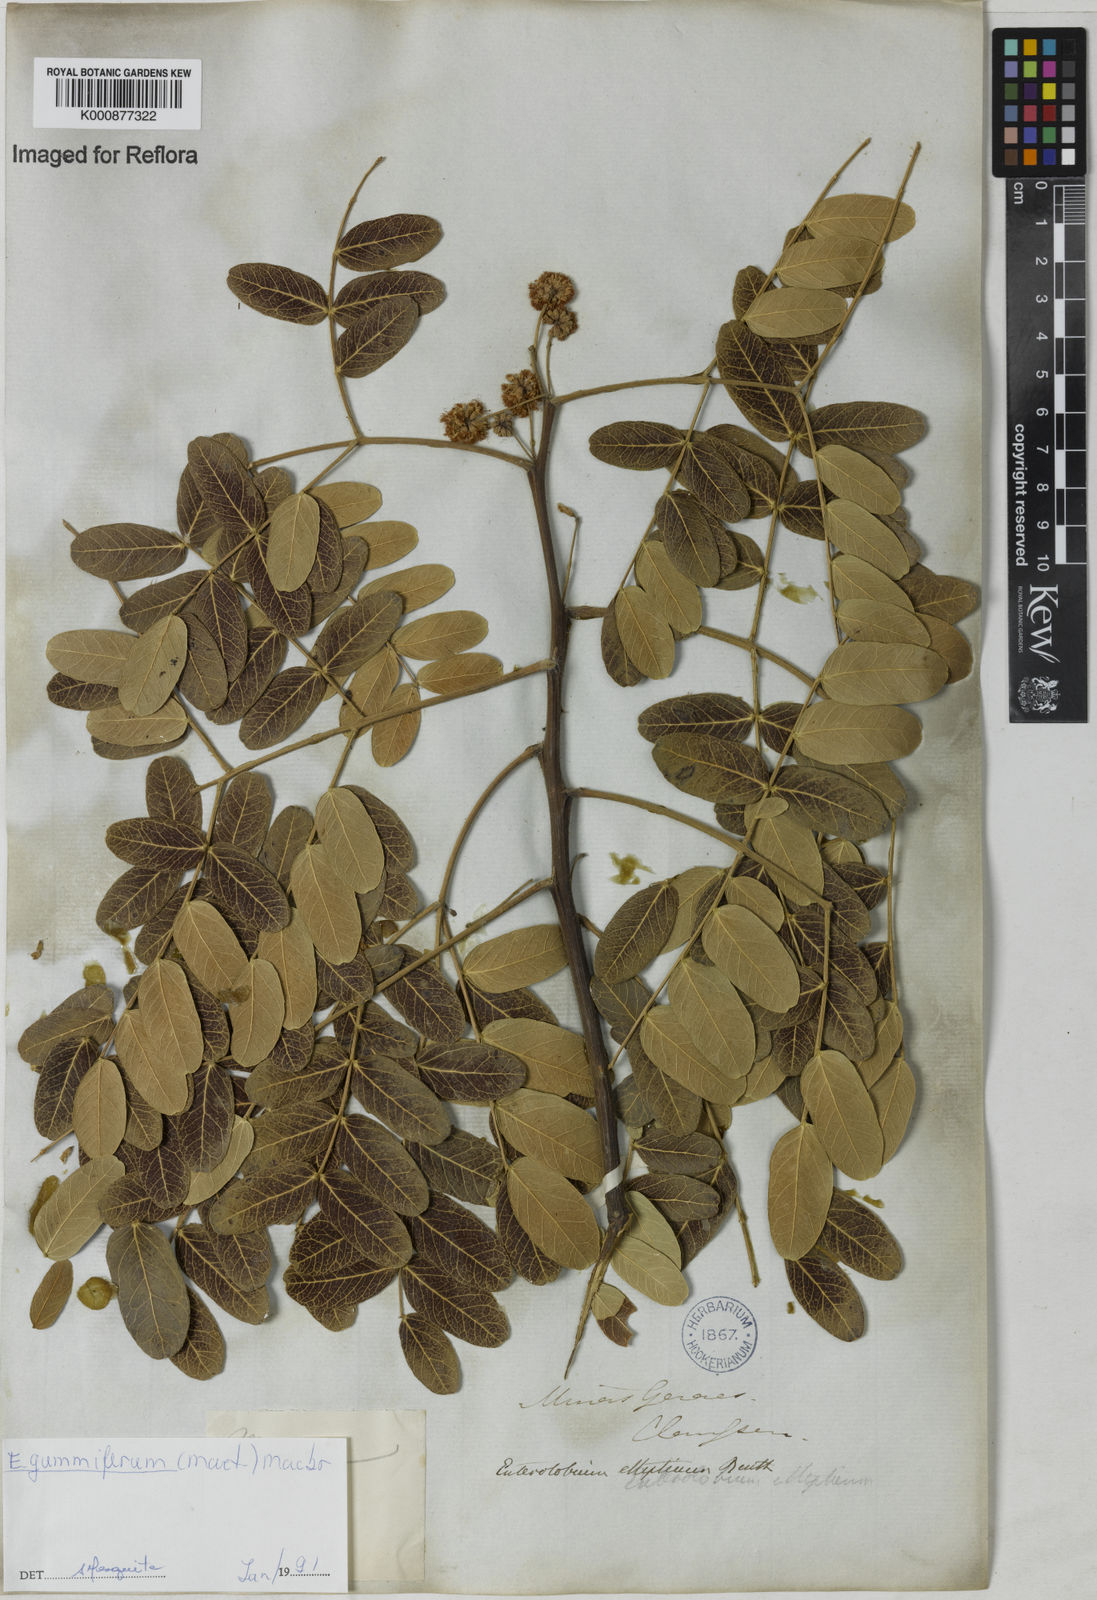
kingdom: Plantae
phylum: Tracheophyta
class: Magnoliopsida
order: Fabales
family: Fabaceae
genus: Enterolobium
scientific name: Enterolobium gummiferum
